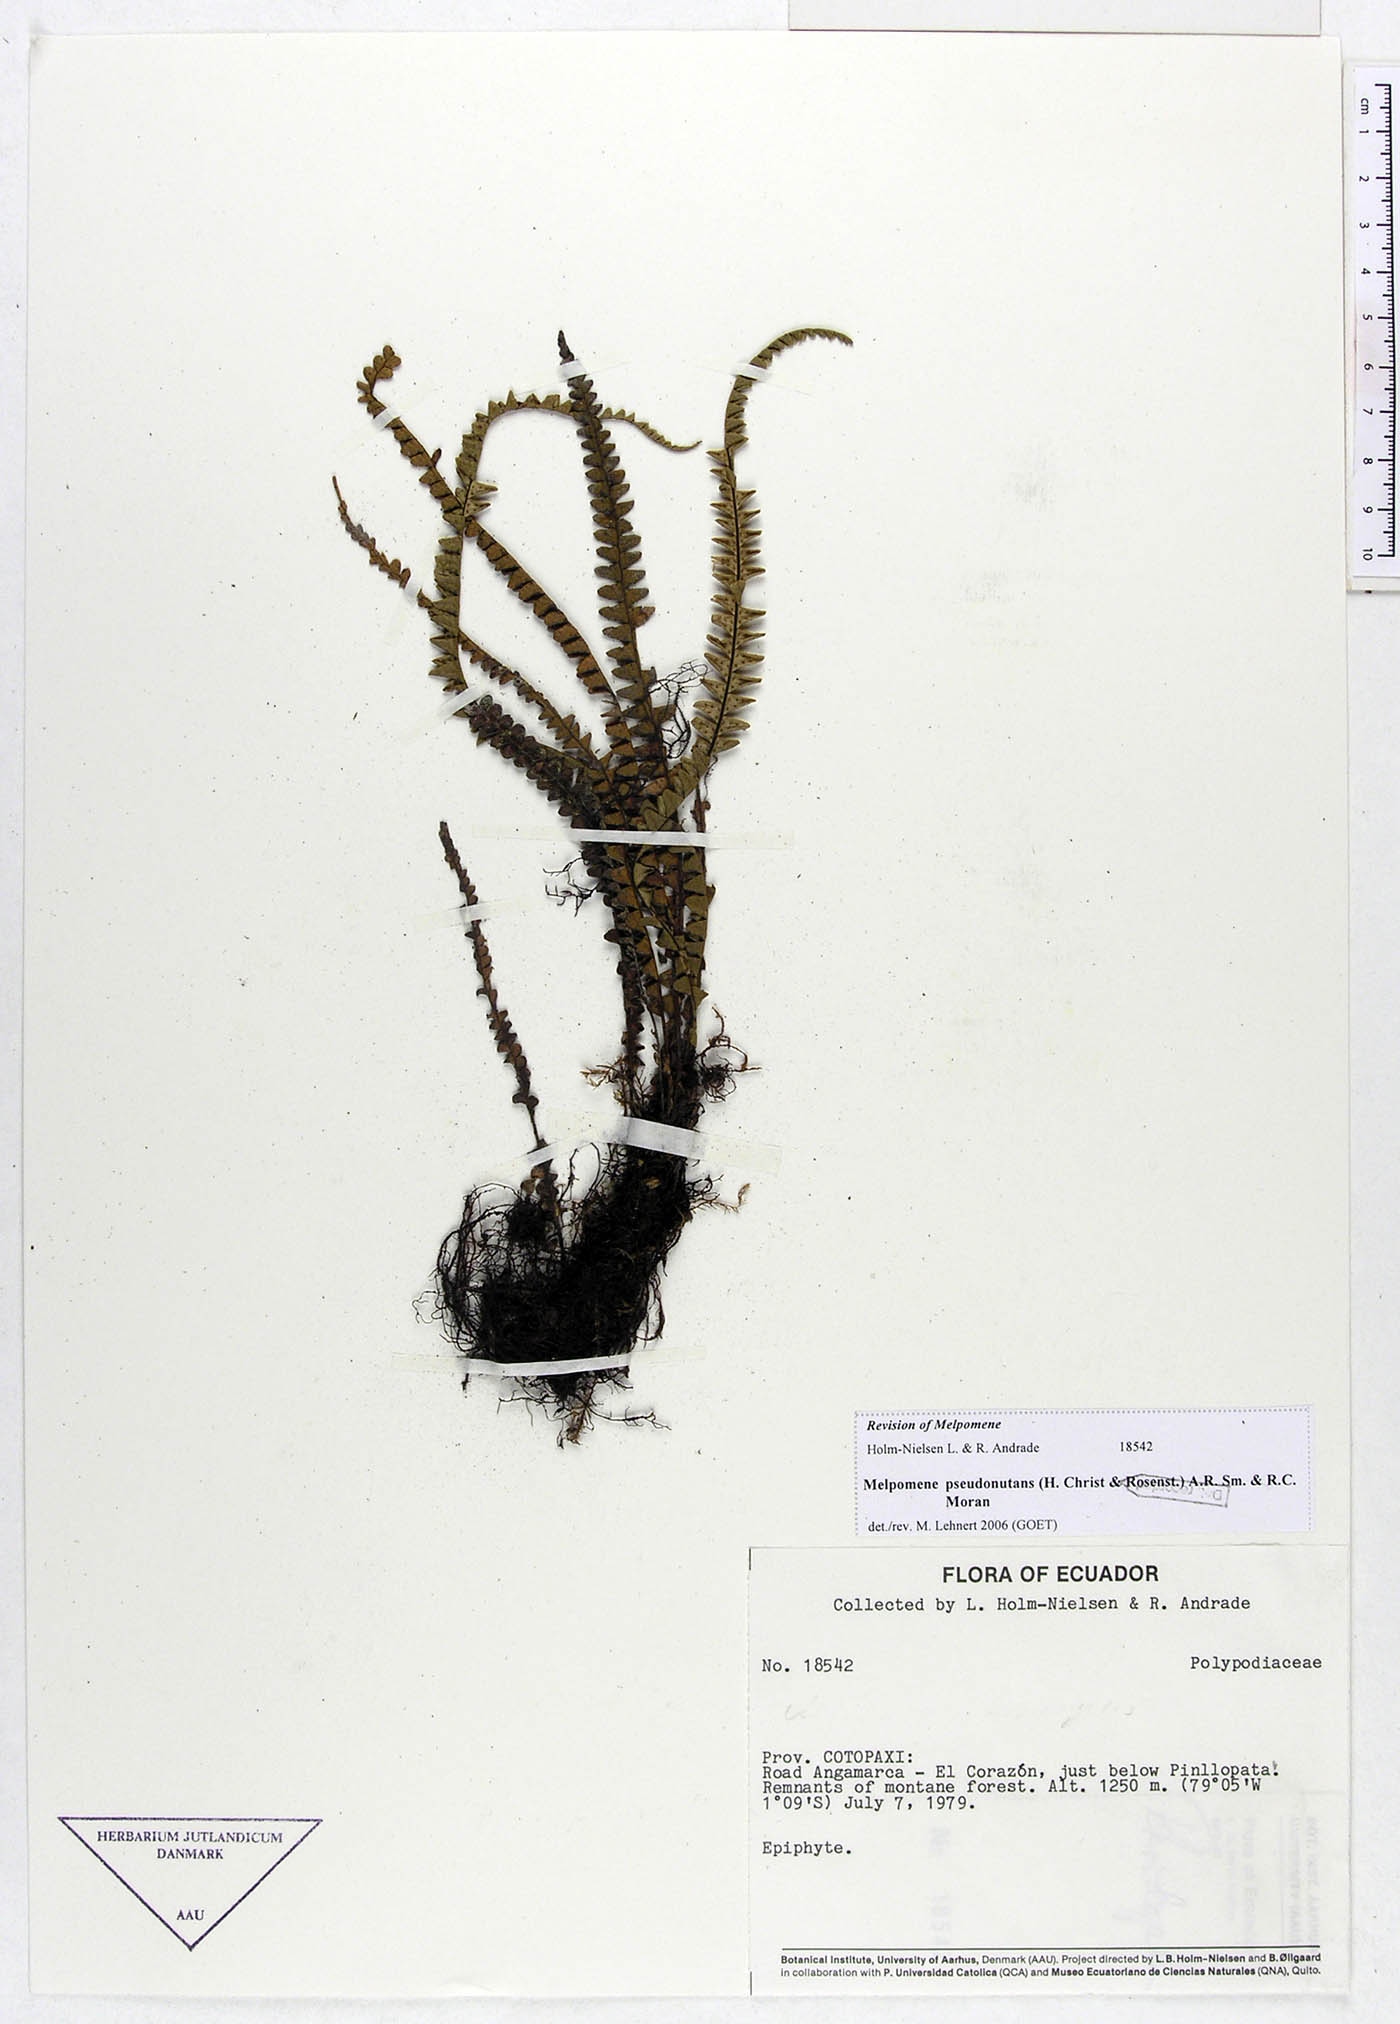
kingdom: Plantae
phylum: Tracheophyta
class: Polypodiopsida
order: Polypodiales
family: Polypodiaceae
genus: Melpomene
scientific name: Melpomene pseudonutans
